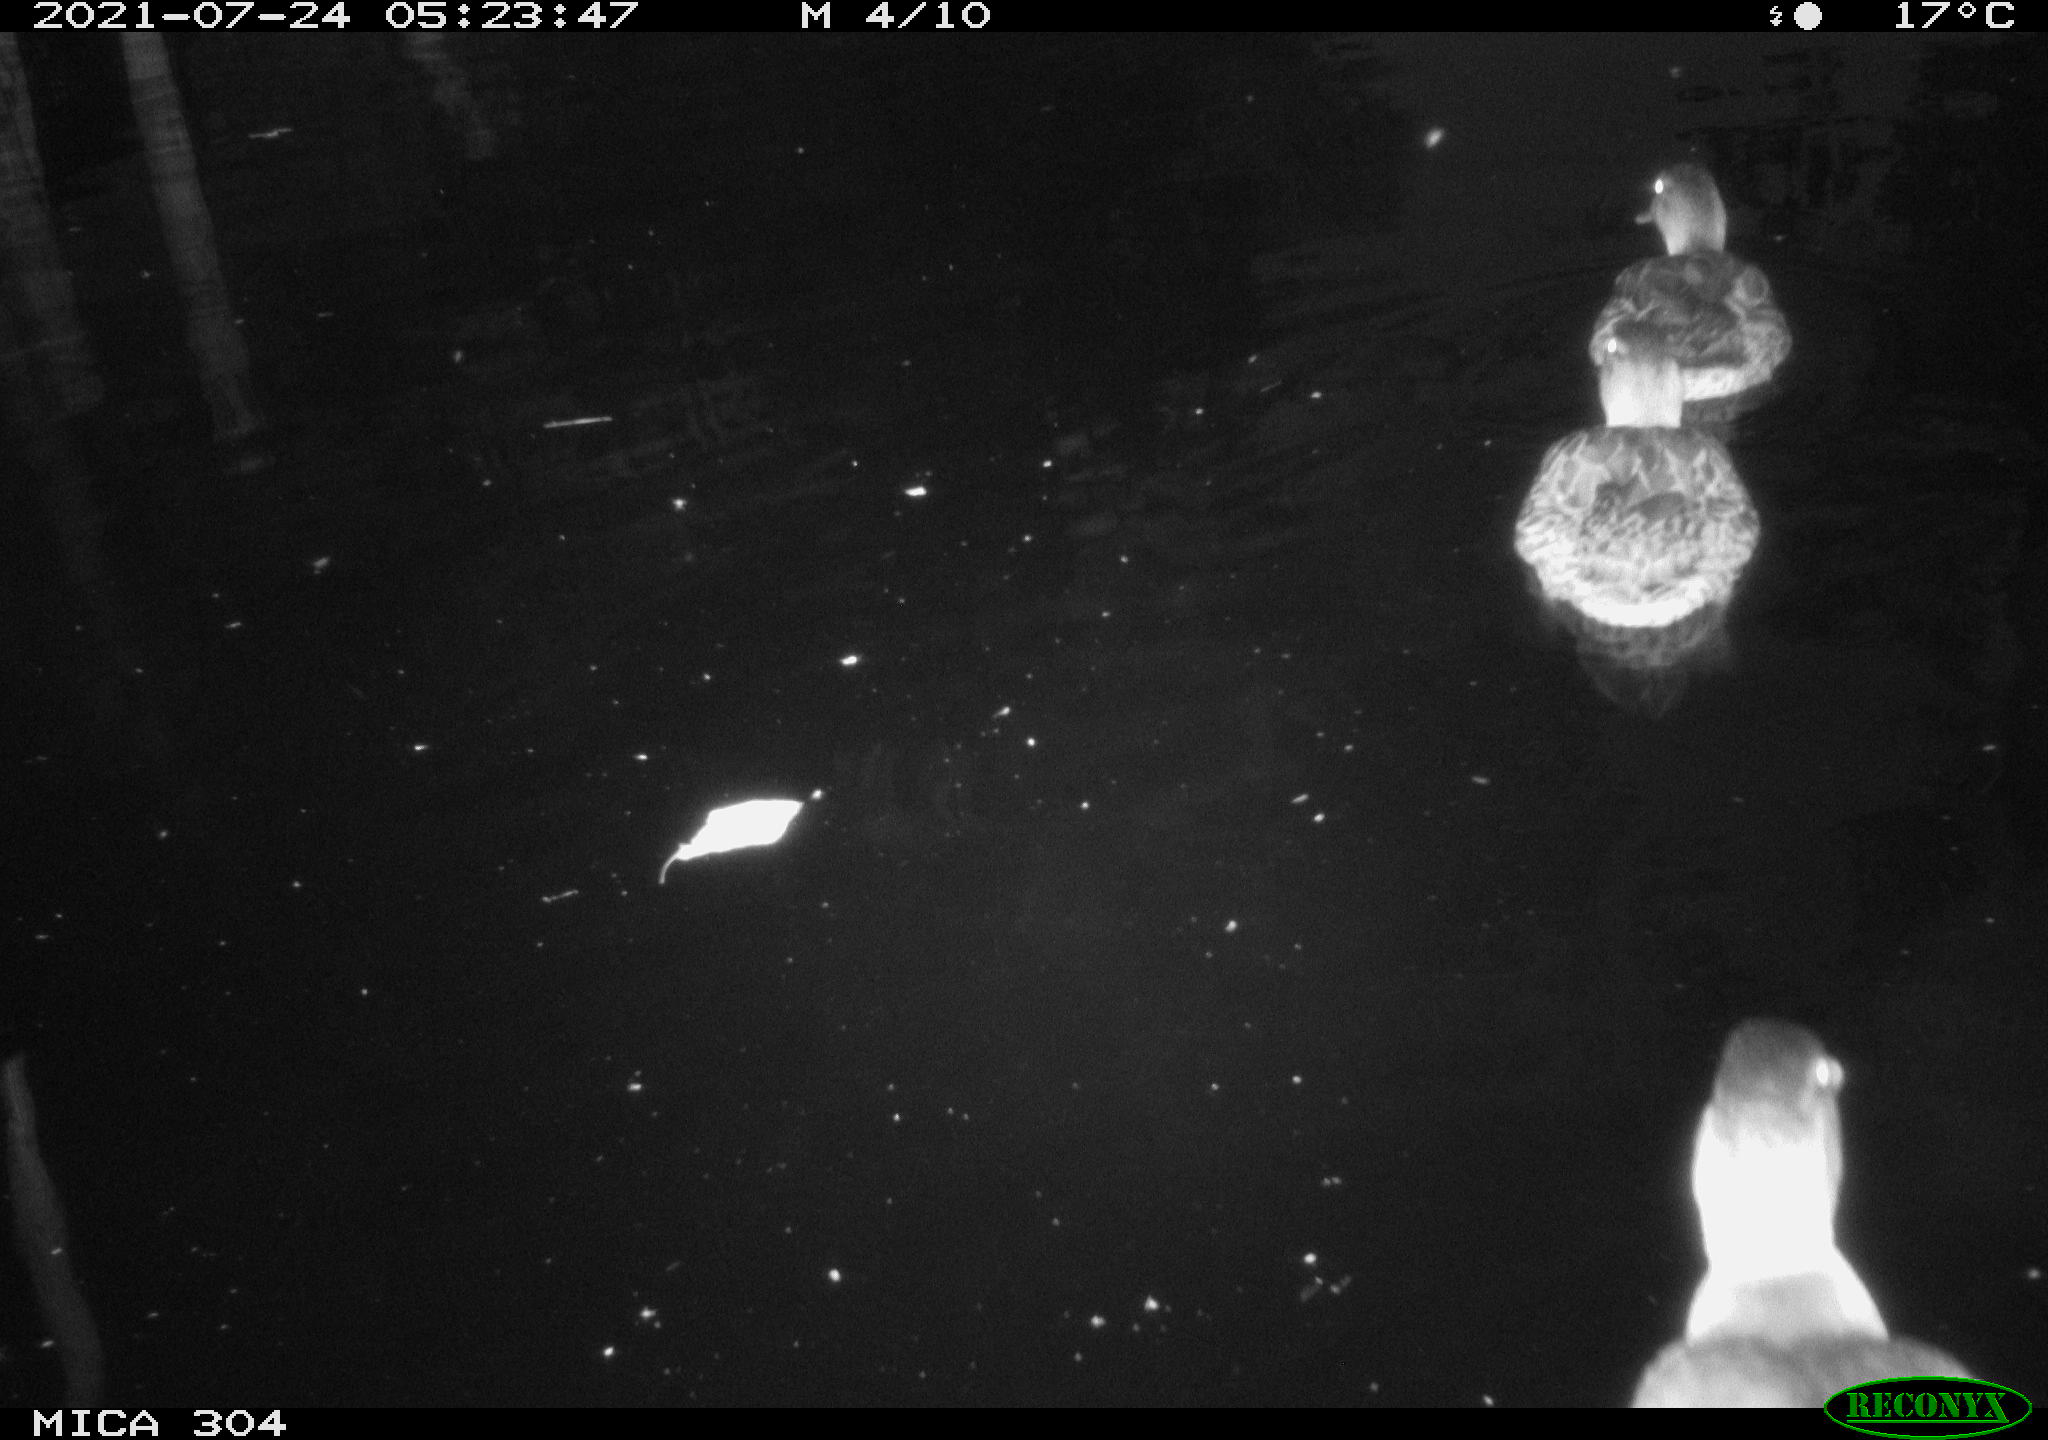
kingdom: Animalia
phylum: Chordata
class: Aves
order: Anseriformes
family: Anatidae
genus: Mareca
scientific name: Mareca strepera
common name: Gadwall
